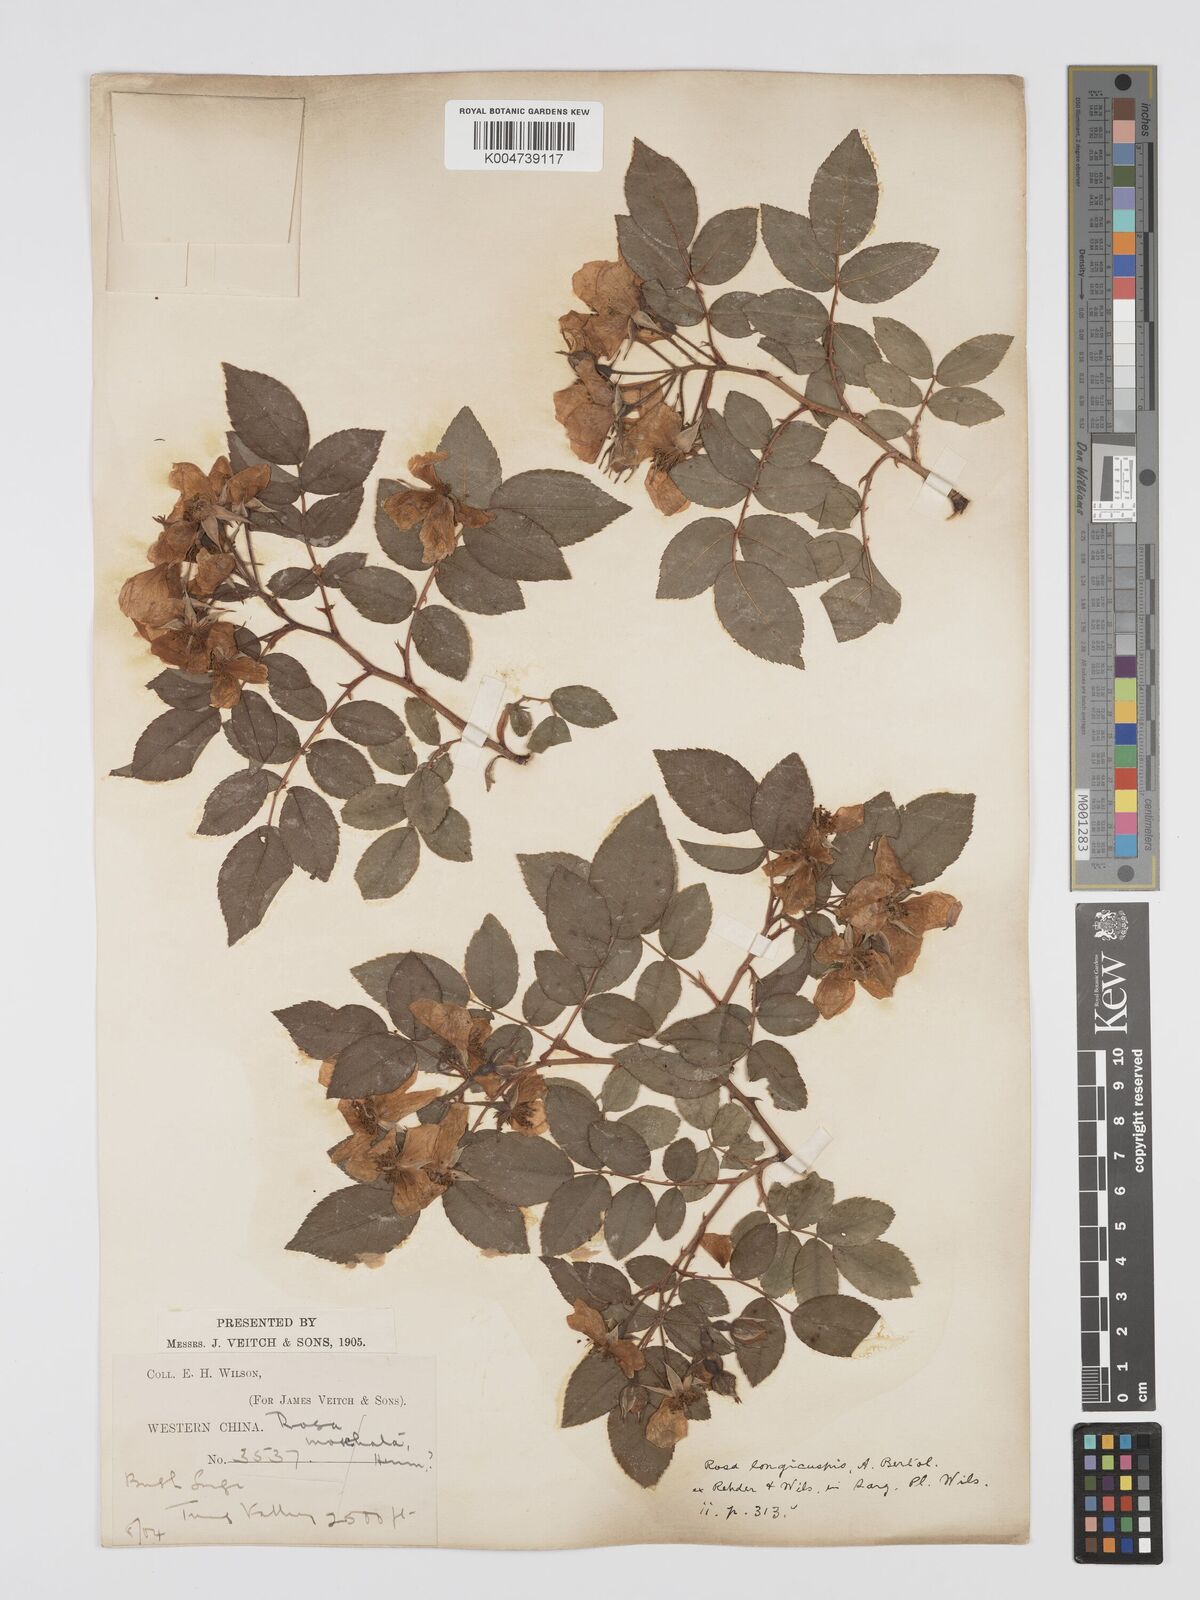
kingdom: Plantae
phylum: Tracheophyta
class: Magnoliopsida
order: Rosales
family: Rosaceae
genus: Rosa
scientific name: Rosa longicuspis
